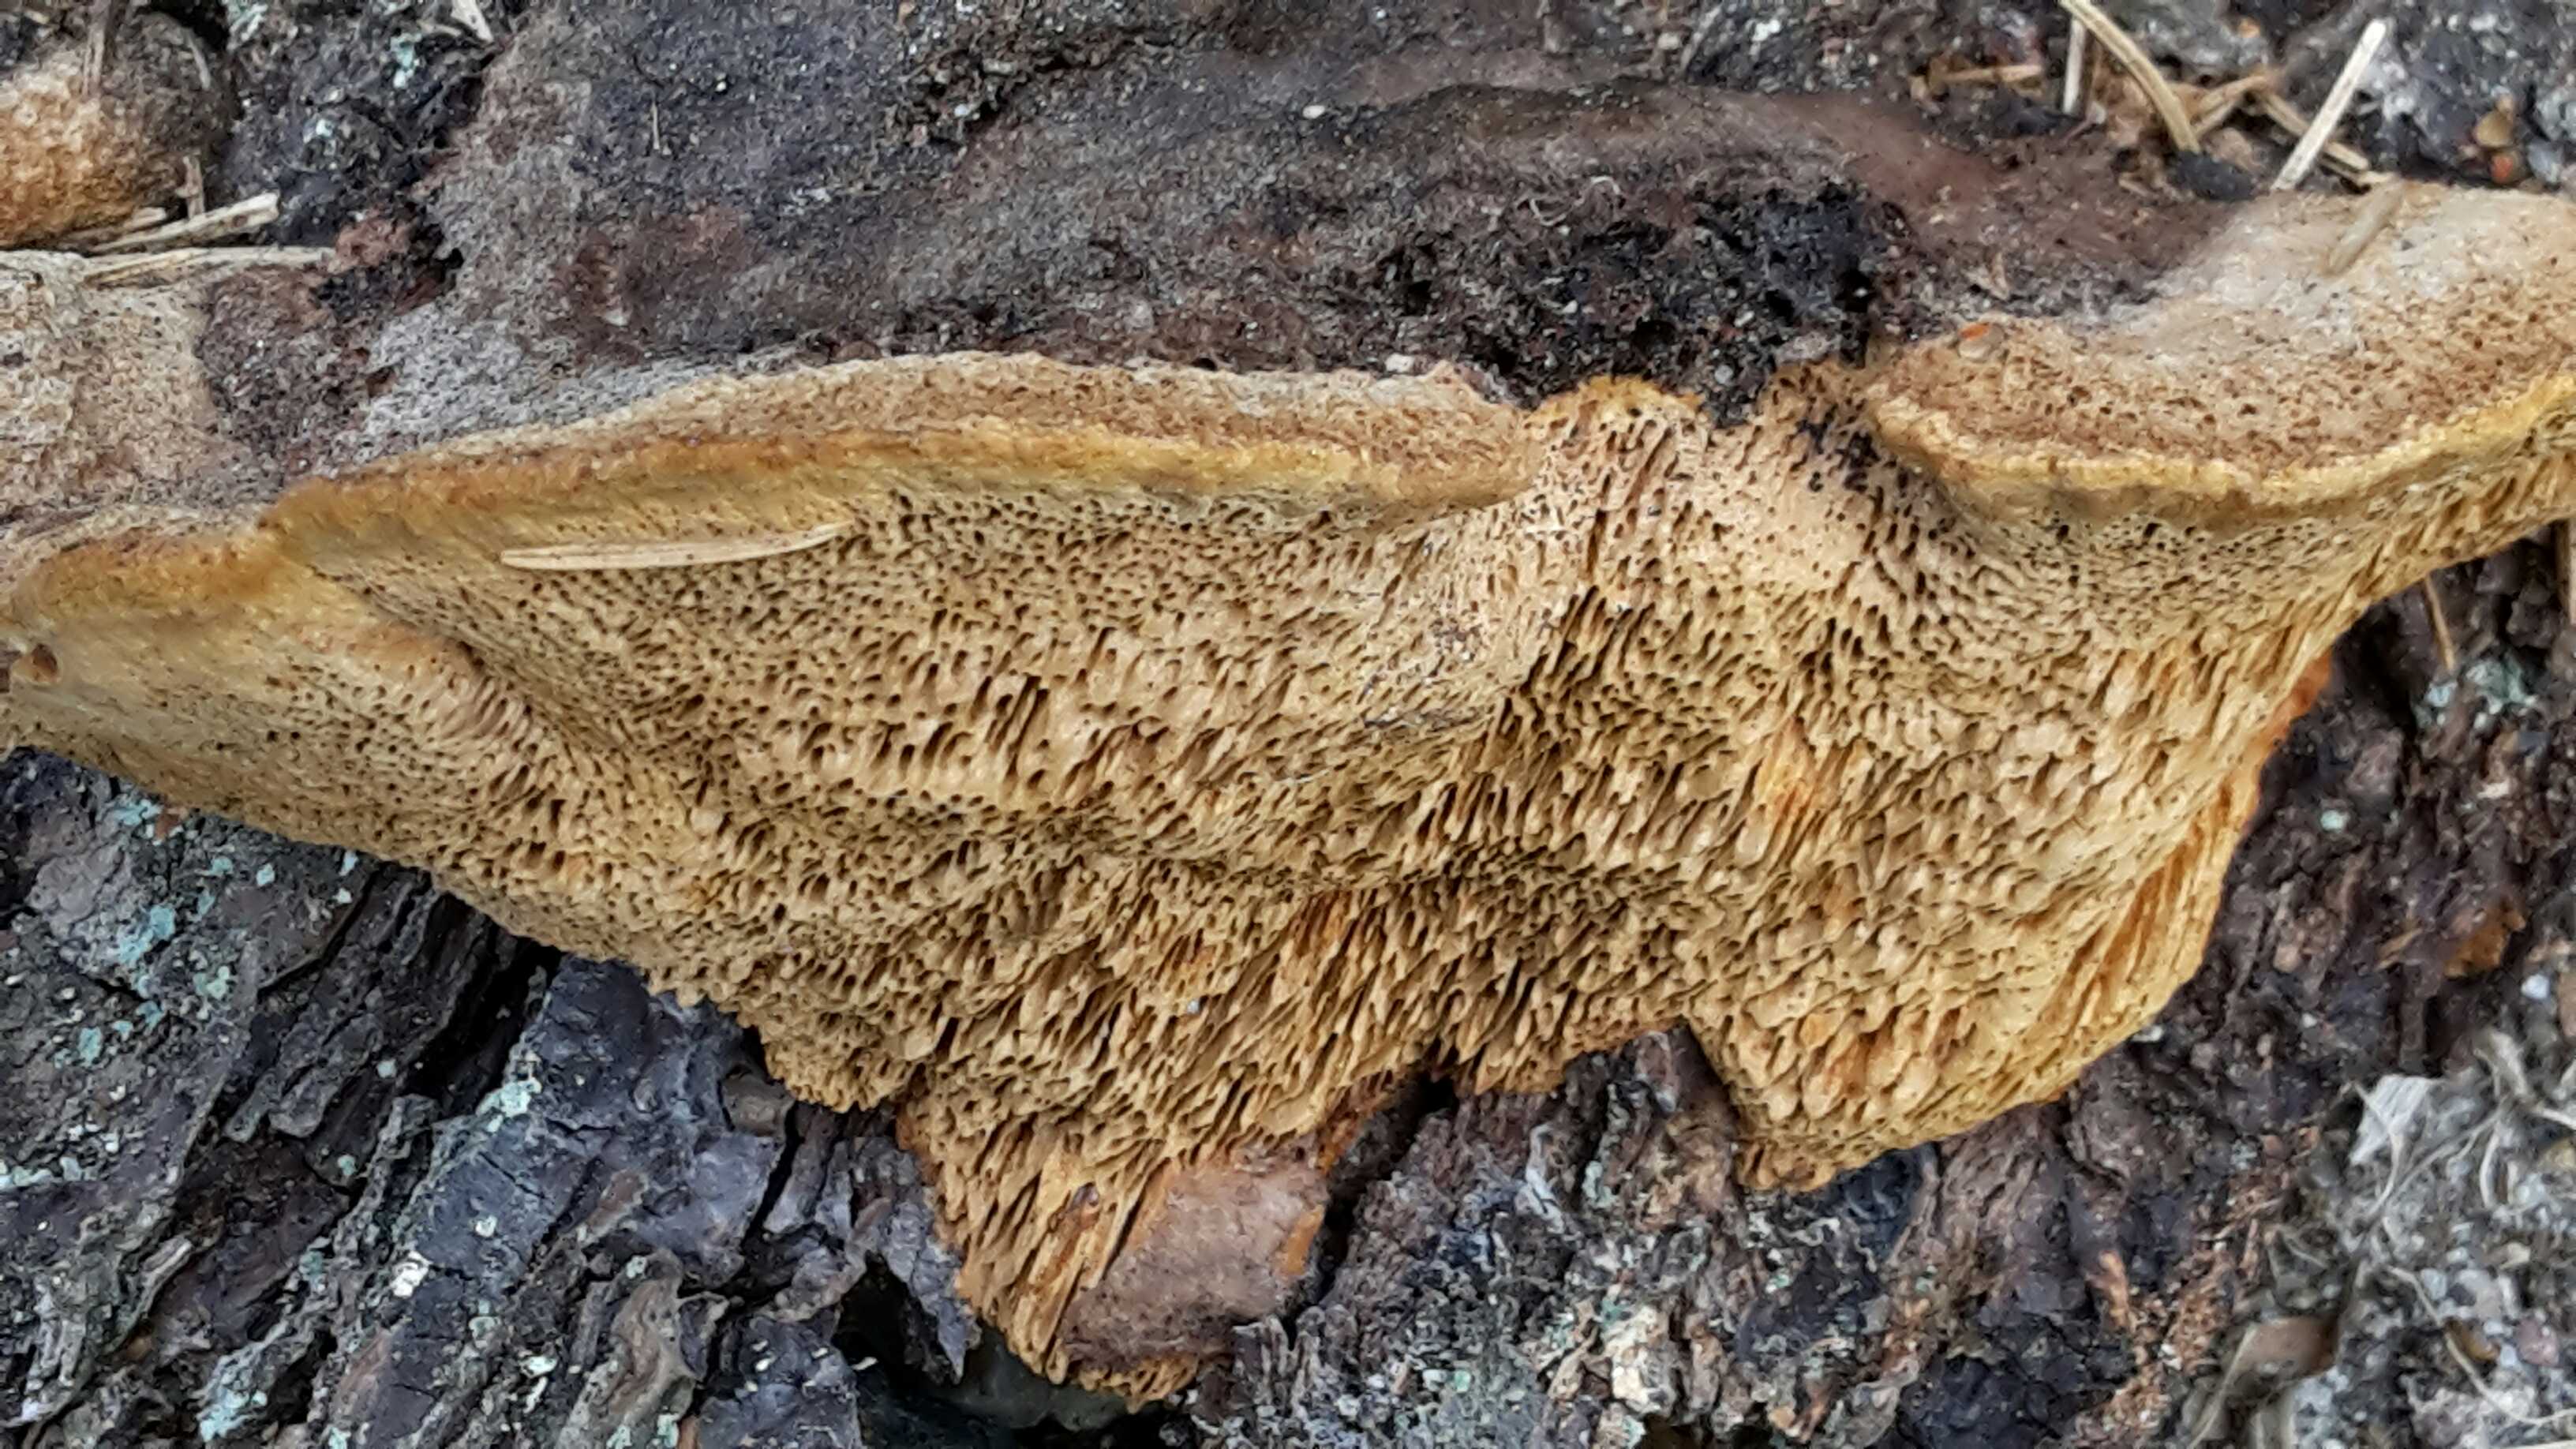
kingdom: Fungi
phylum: Basidiomycota
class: Agaricomycetes
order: Gloeophyllales
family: Gloeophyllaceae
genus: Gloeophyllum
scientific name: Gloeophyllum odoratum
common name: duftende korkhat
